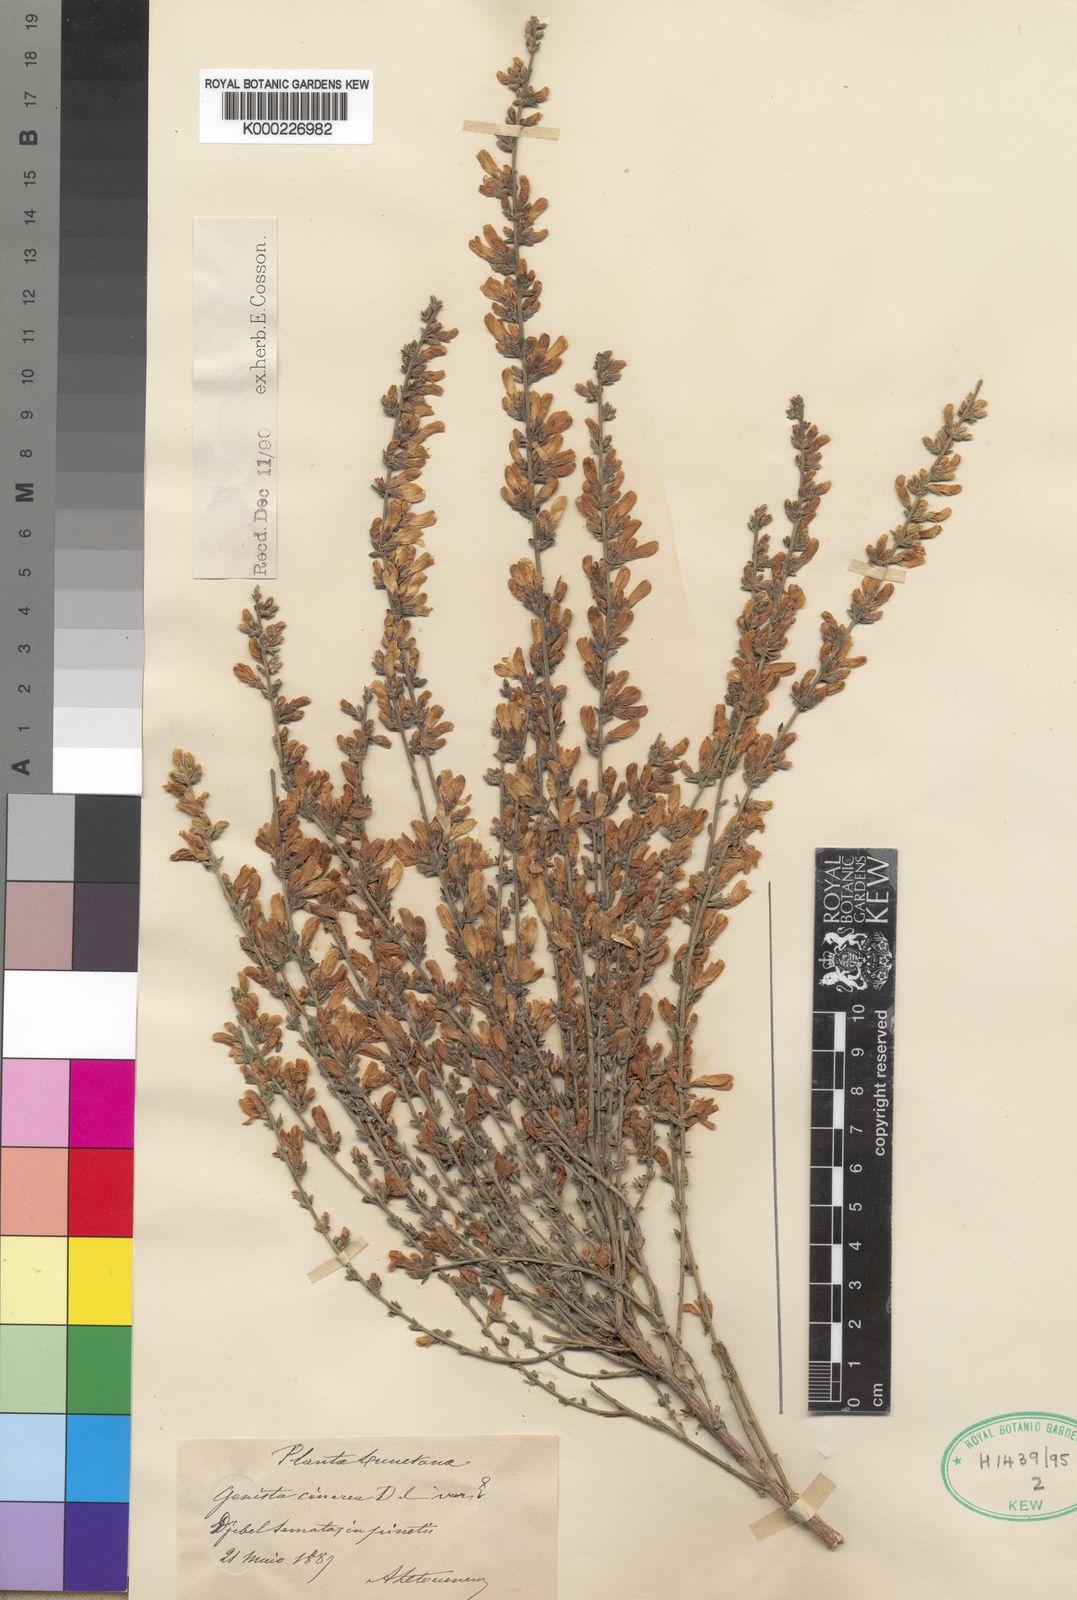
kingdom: Plantae
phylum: Tracheophyta
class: Magnoliopsida
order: Fabales
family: Fabaceae
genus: Genista
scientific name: Genista cinerea
